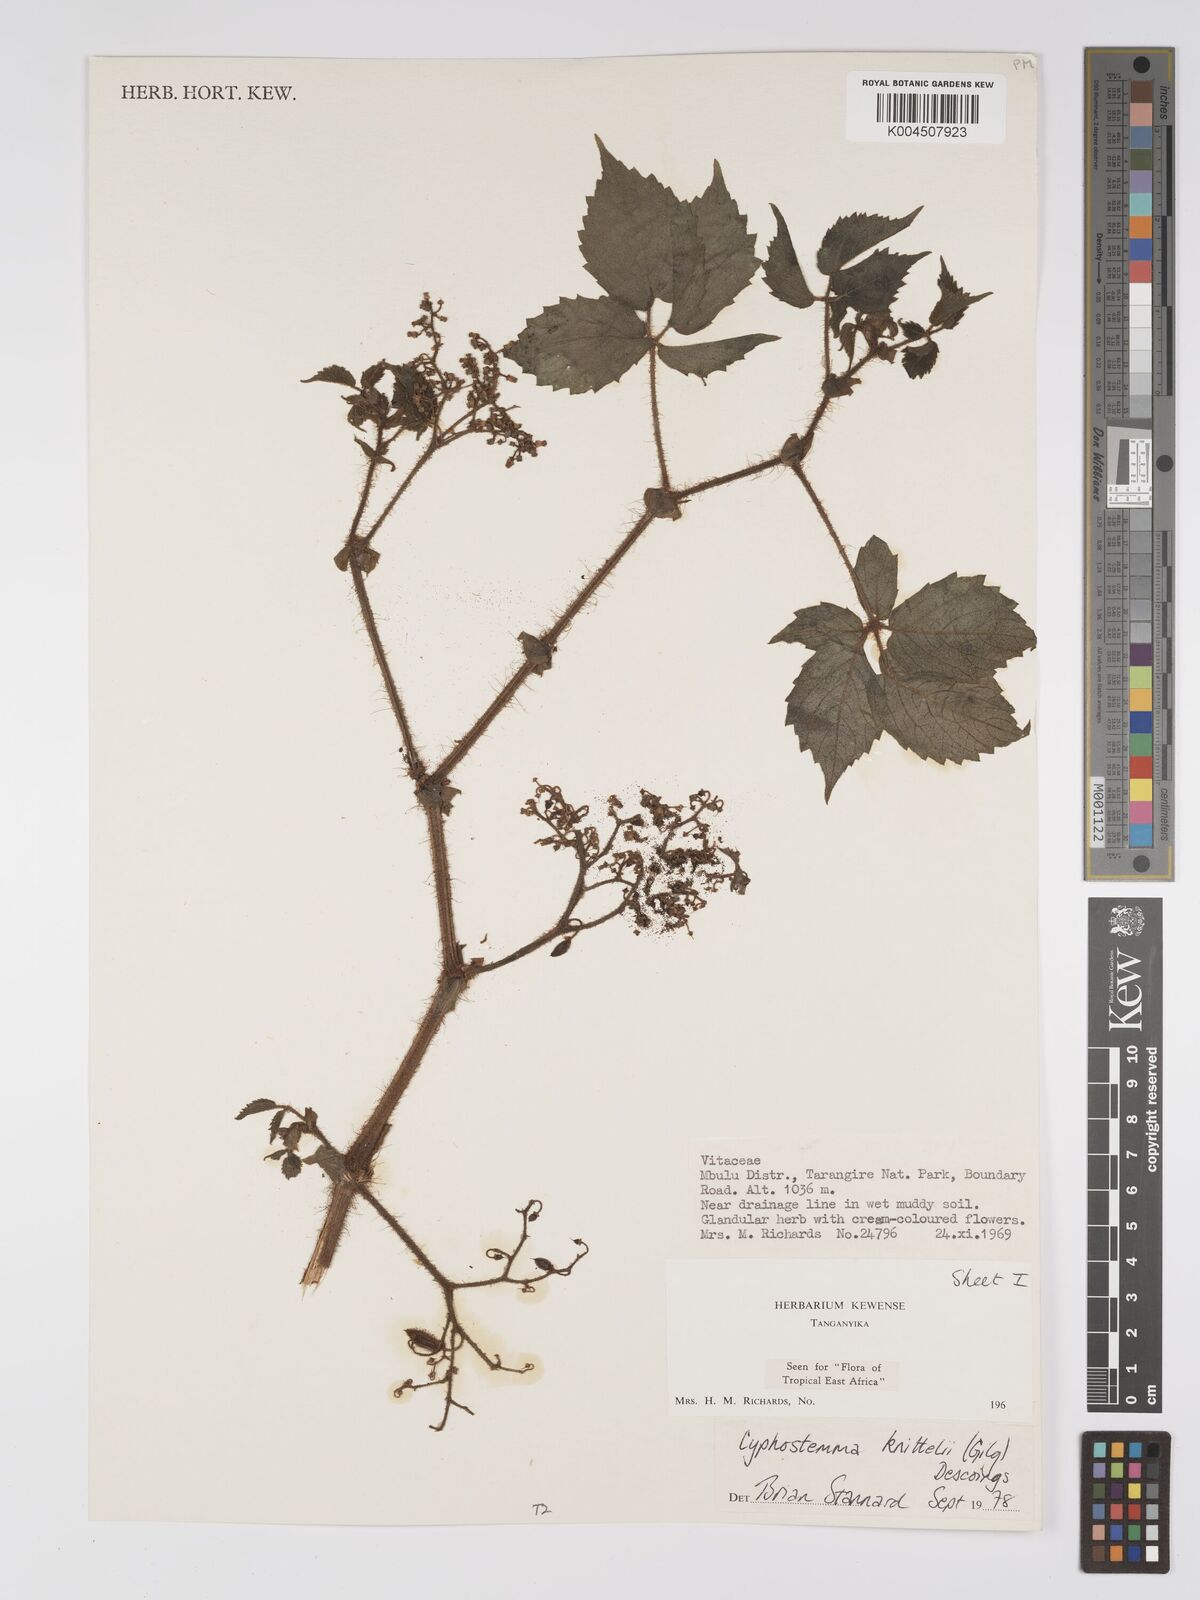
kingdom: Plantae
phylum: Tracheophyta
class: Magnoliopsida
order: Vitales
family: Vitaceae
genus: Cyphostemma
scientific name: Cyphostemma knittelii
